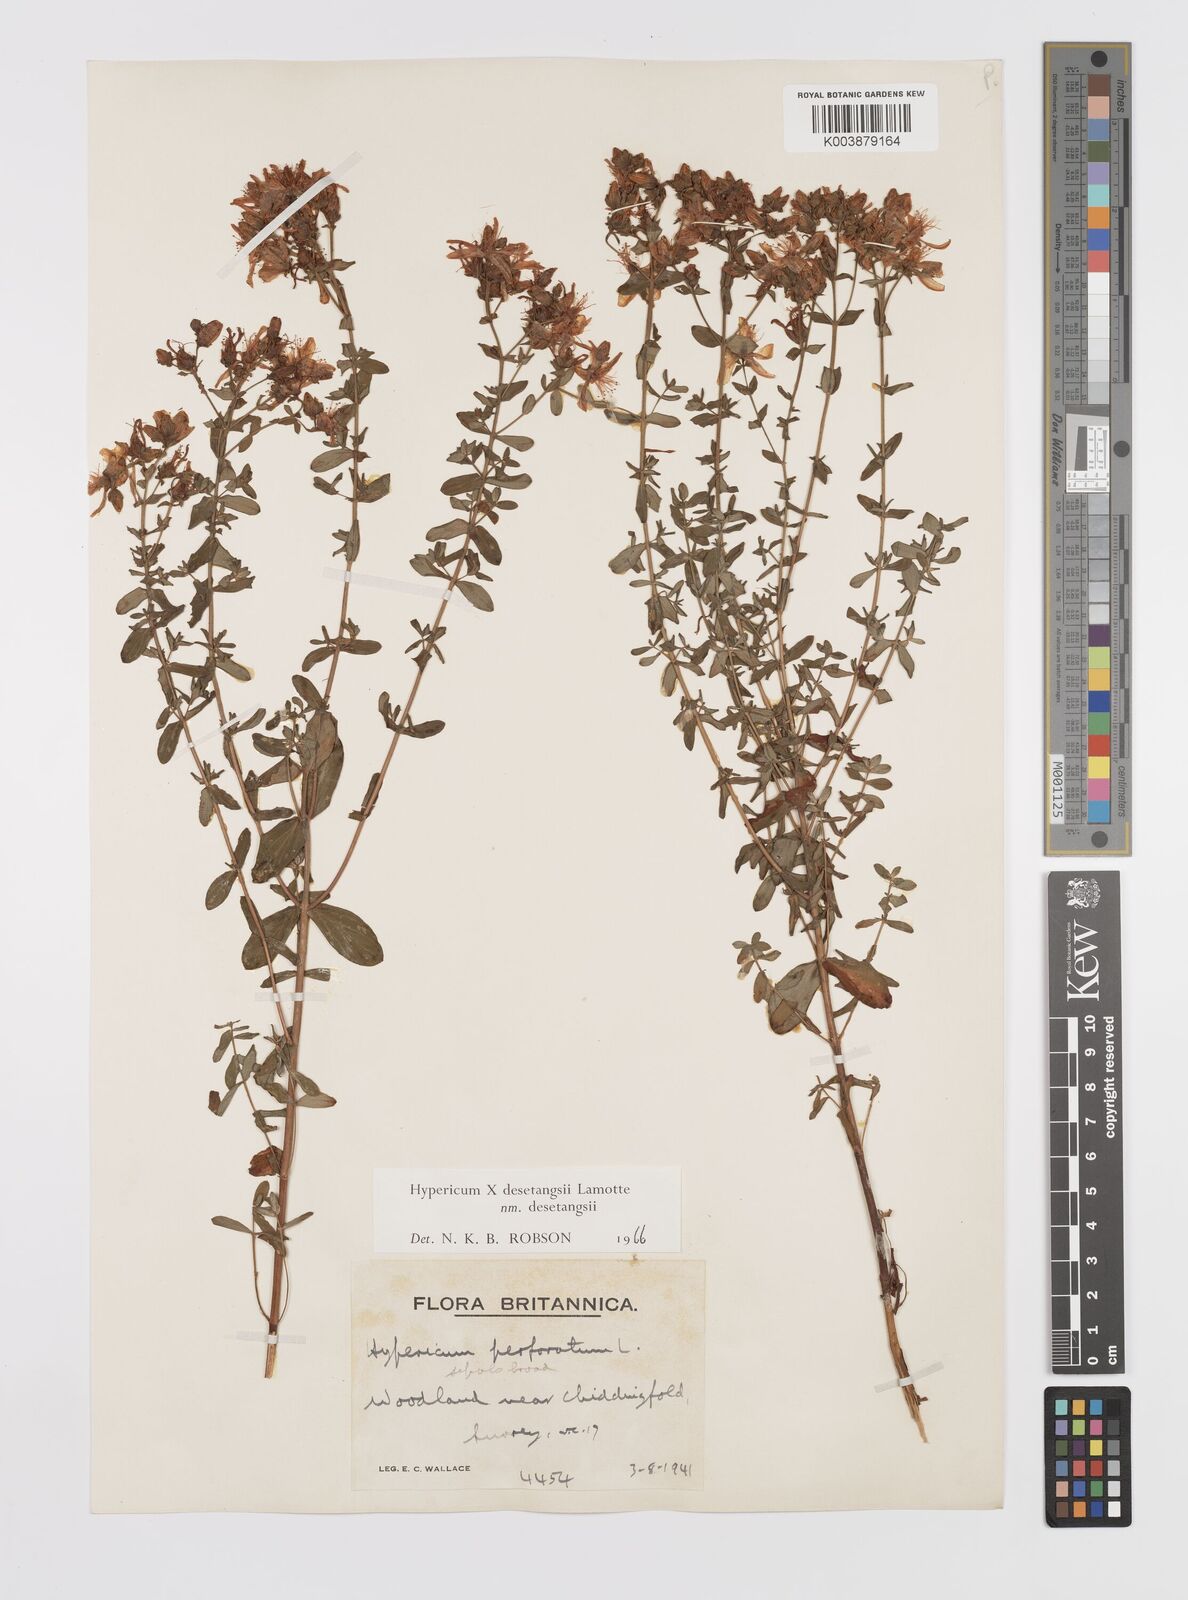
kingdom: Plantae
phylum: Tracheophyta
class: Magnoliopsida
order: Malpighiales
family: Hypericaceae
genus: Hypericum
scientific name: Hypericum undulatum
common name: Wavy st. john's-wort
